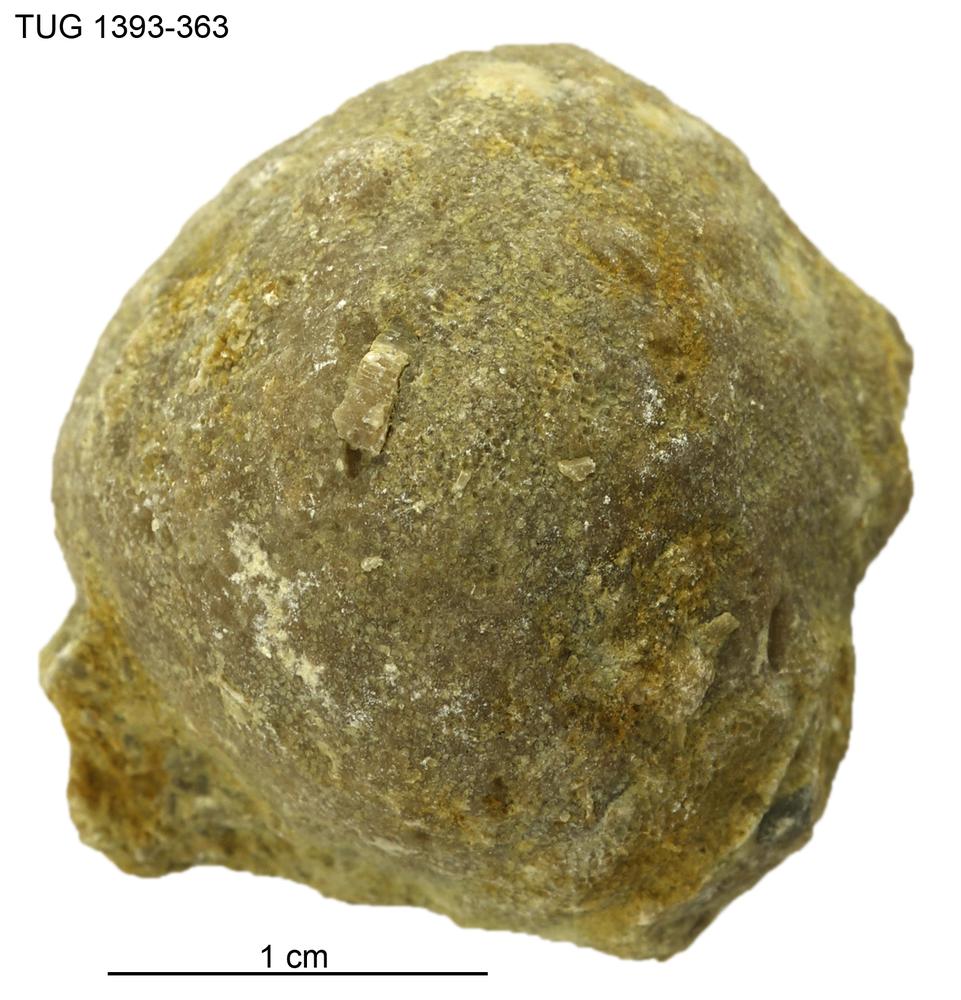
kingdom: Animalia
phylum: Bryozoa
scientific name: Bryozoa
